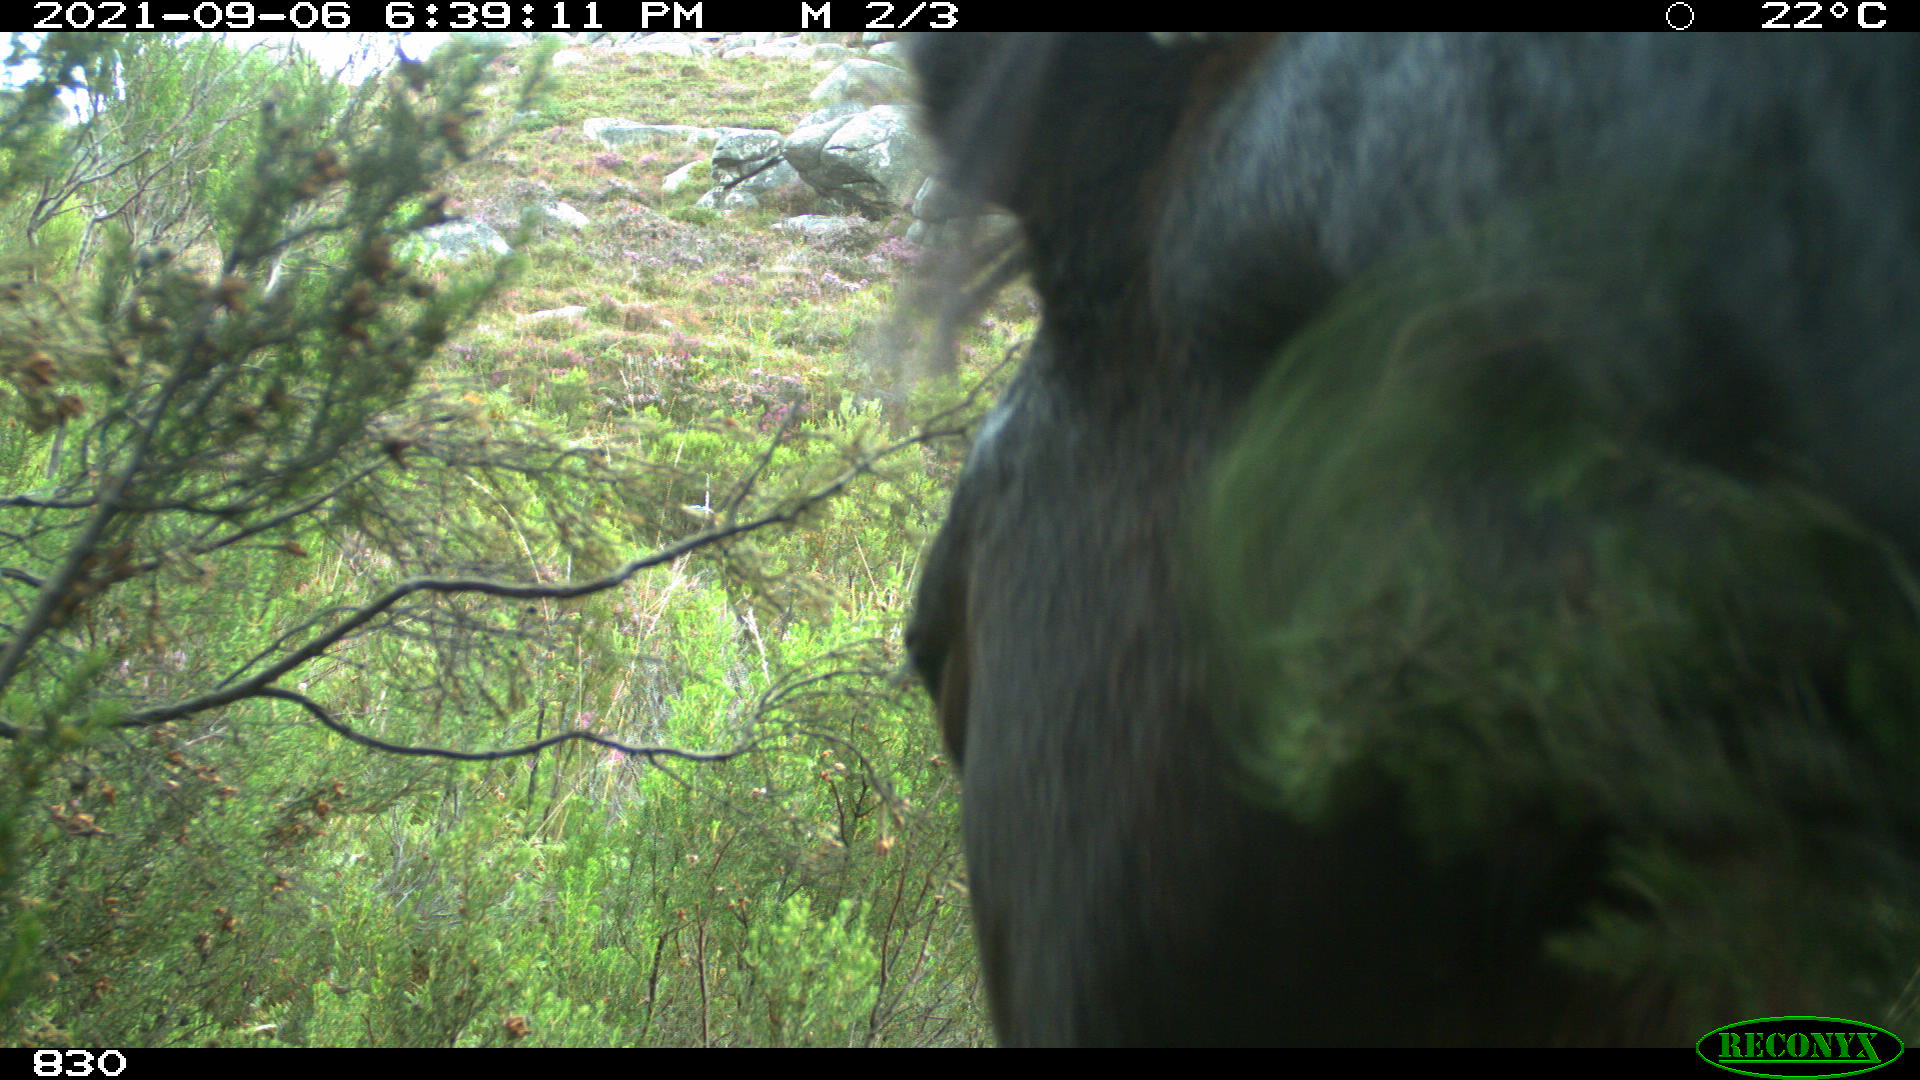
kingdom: Animalia
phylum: Chordata
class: Mammalia
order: Perissodactyla
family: Equidae
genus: Equus
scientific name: Equus caballus
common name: Horse
